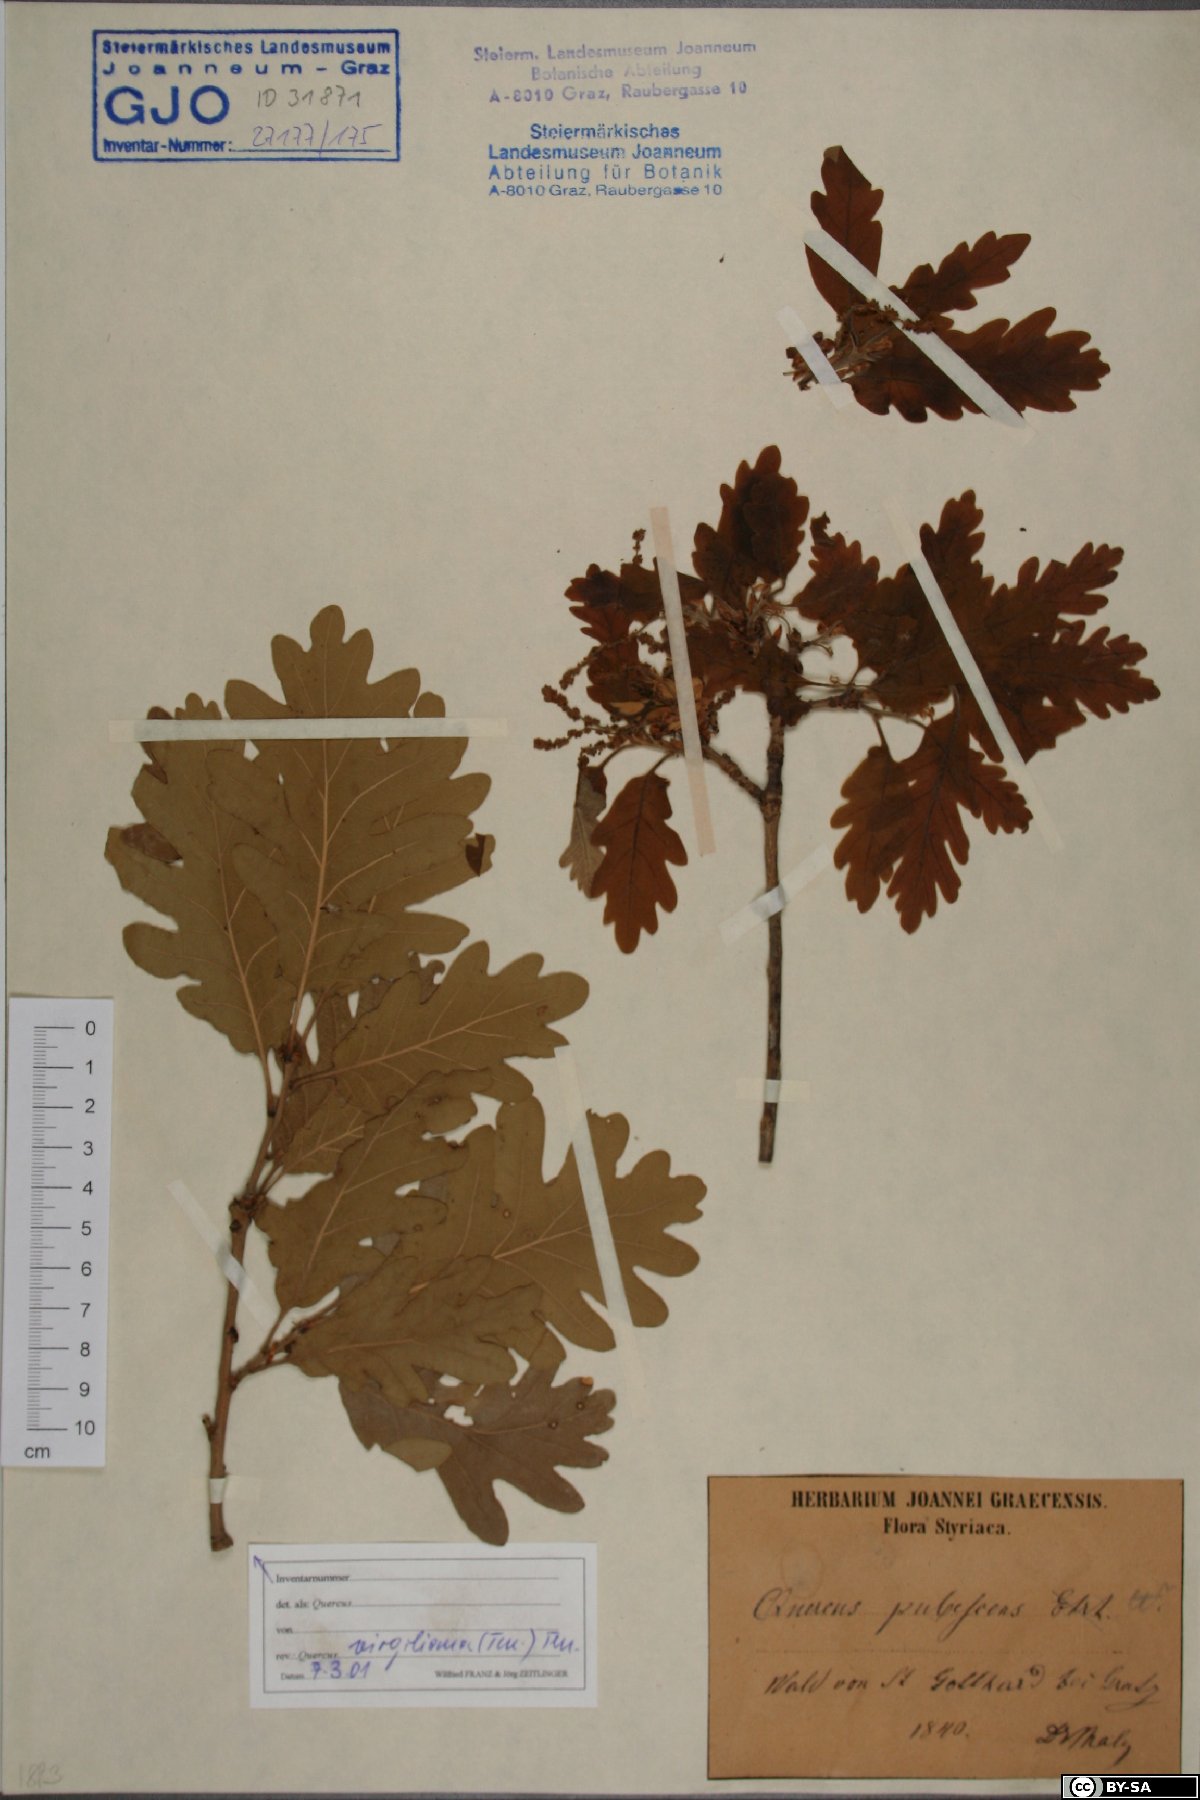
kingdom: Plantae
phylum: Tracheophyta
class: Magnoliopsida
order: Fagales
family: Fagaceae
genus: Quercus
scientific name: Quercus pubescens
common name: Downy oak
